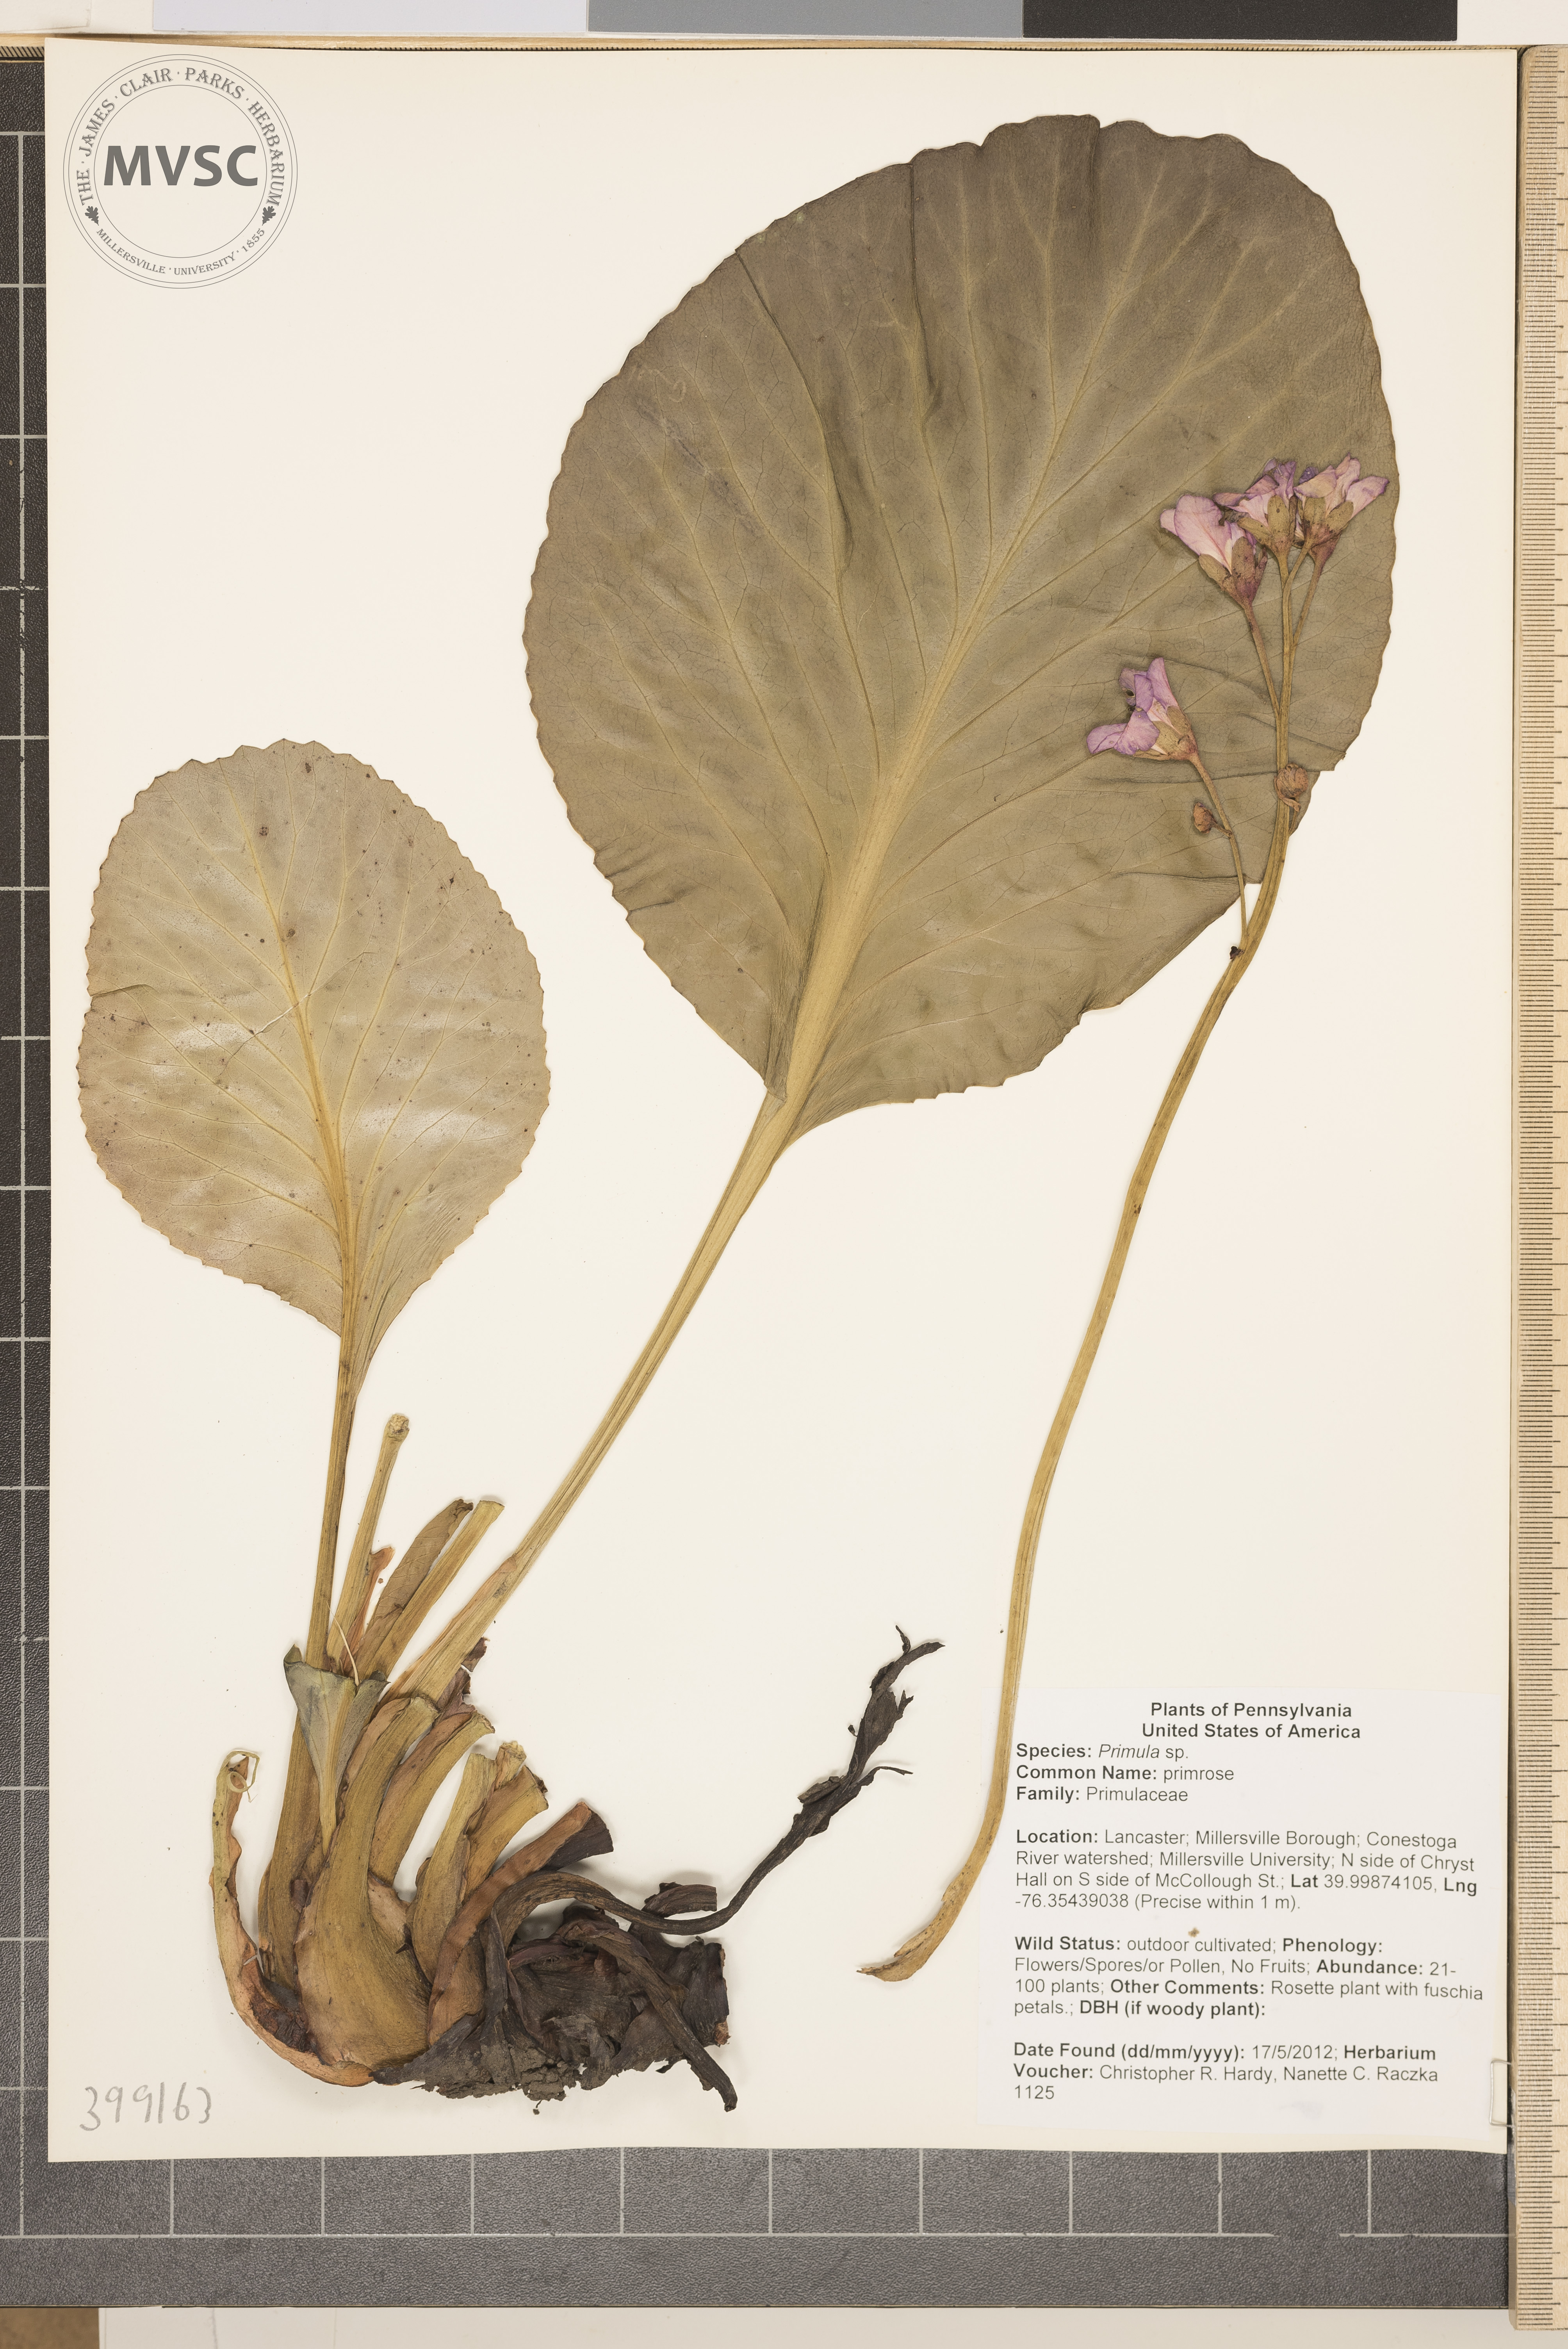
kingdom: Plantae
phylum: Tracheophyta
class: Magnoliopsida
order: Ericales
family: Primulaceae
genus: Primula
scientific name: Primula
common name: primrose
